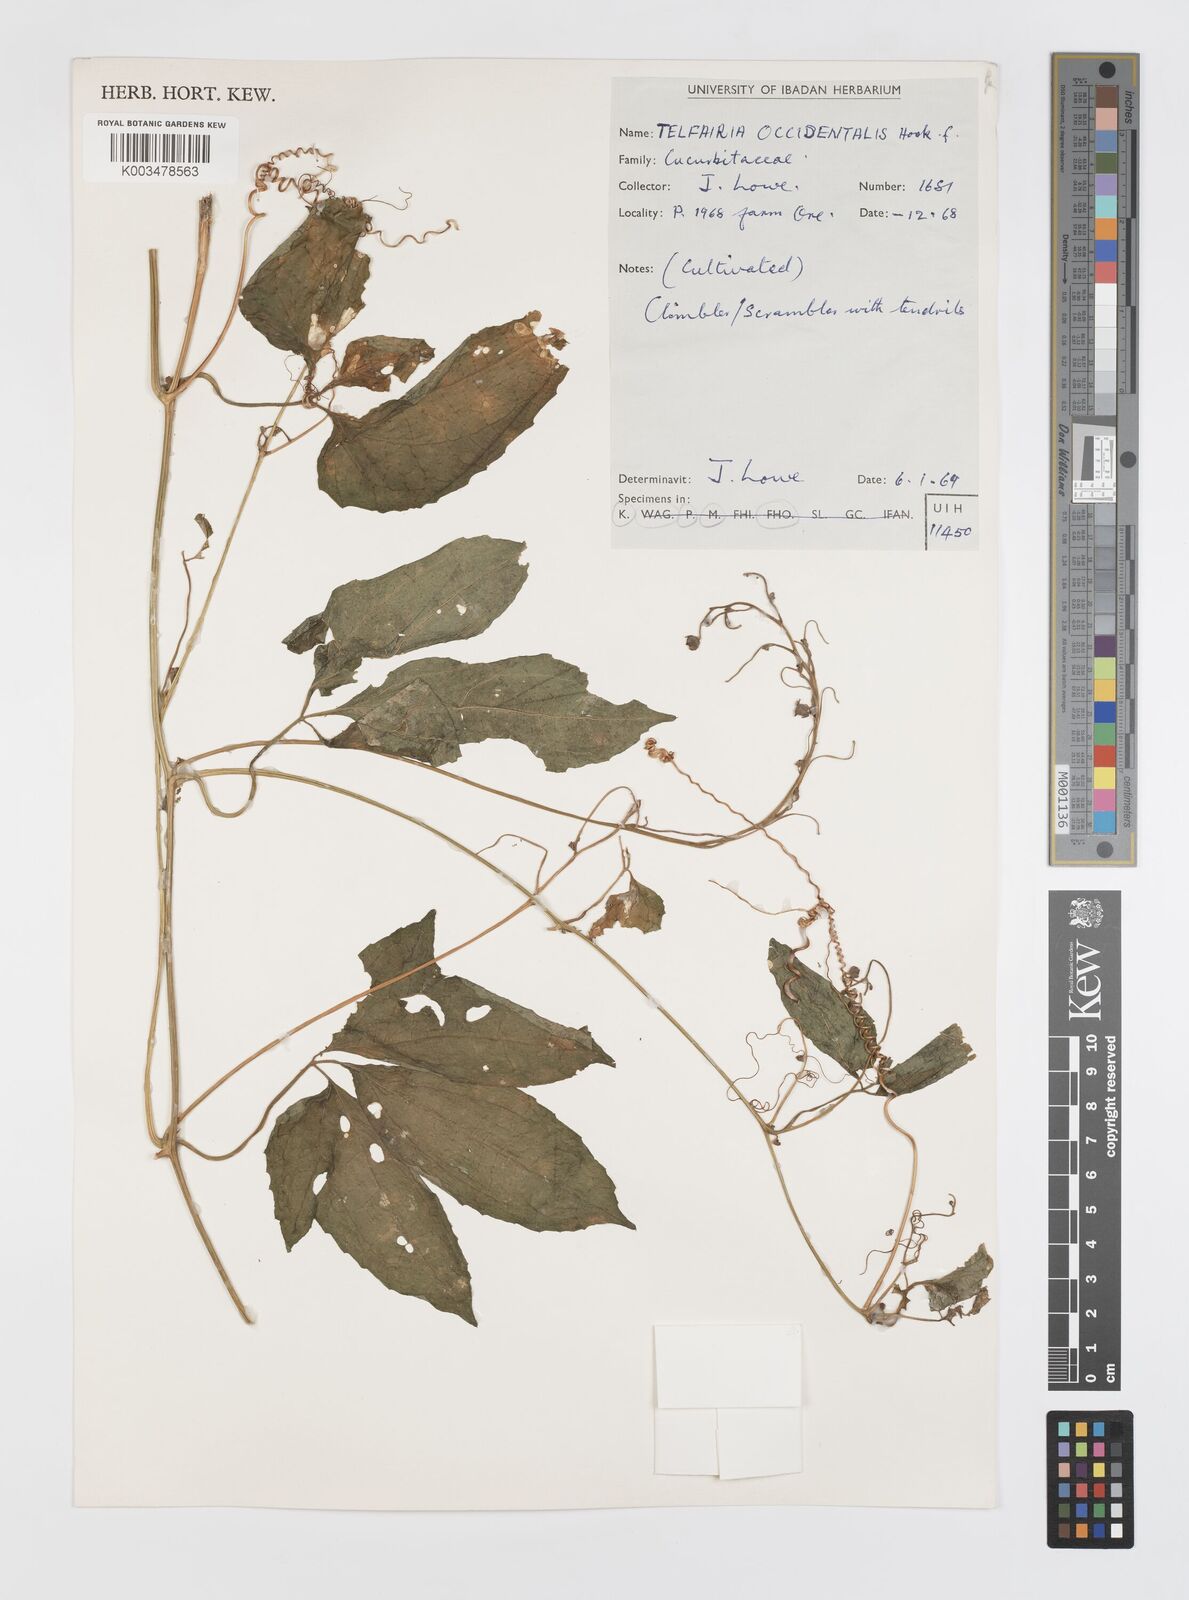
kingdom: Plantae
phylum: Tracheophyta
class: Magnoliopsida
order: Cucurbitales
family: Cucurbitaceae
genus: Telfairia
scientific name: Telfairia occidentalis
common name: Oysternut
